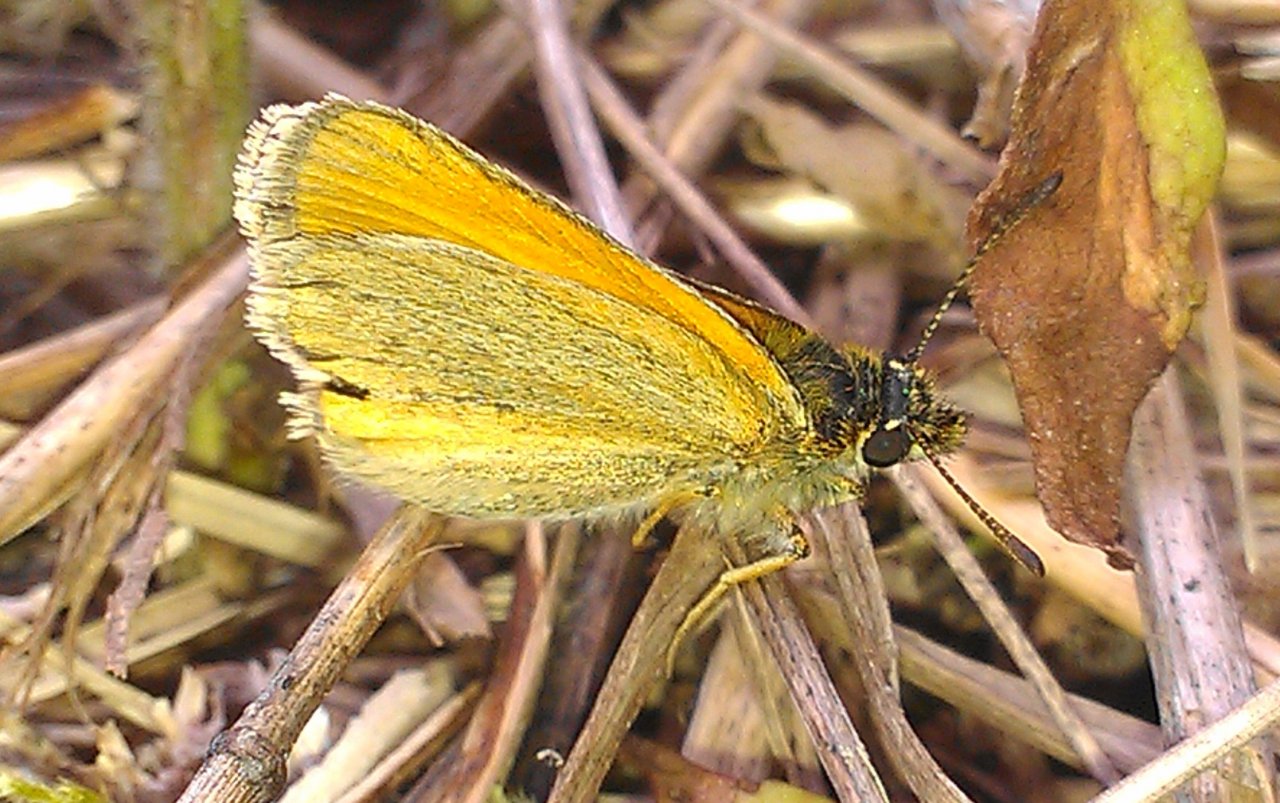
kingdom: Animalia
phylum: Arthropoda
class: Insecta
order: Lepidoptera
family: Hesperiidae
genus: Thymelicus
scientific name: Thymelicus lineola
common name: European Skipper
